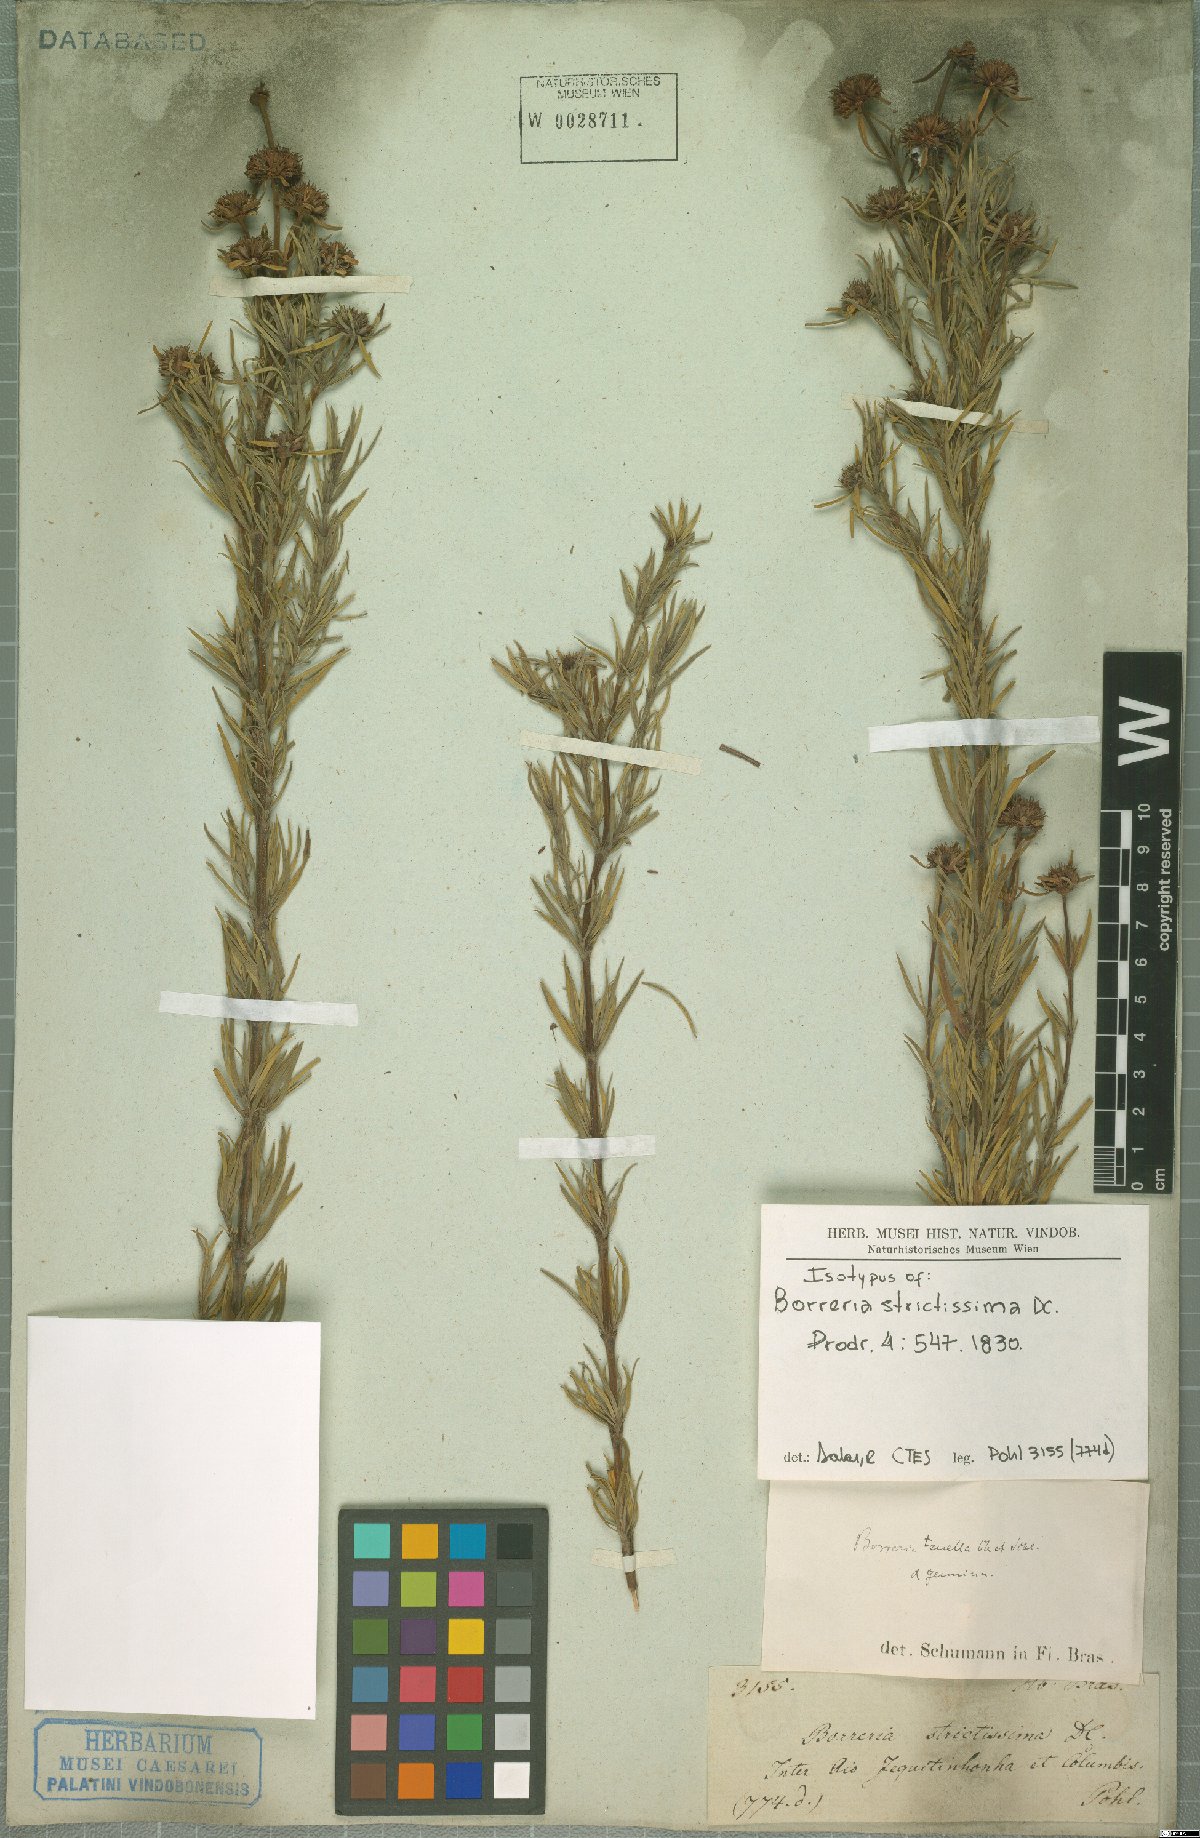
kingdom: Plantae
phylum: Tracheophyta
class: Magnoliopsida
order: Gentianales
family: Rubiaceae
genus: Spermacoce
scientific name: Spermacoce capitata
